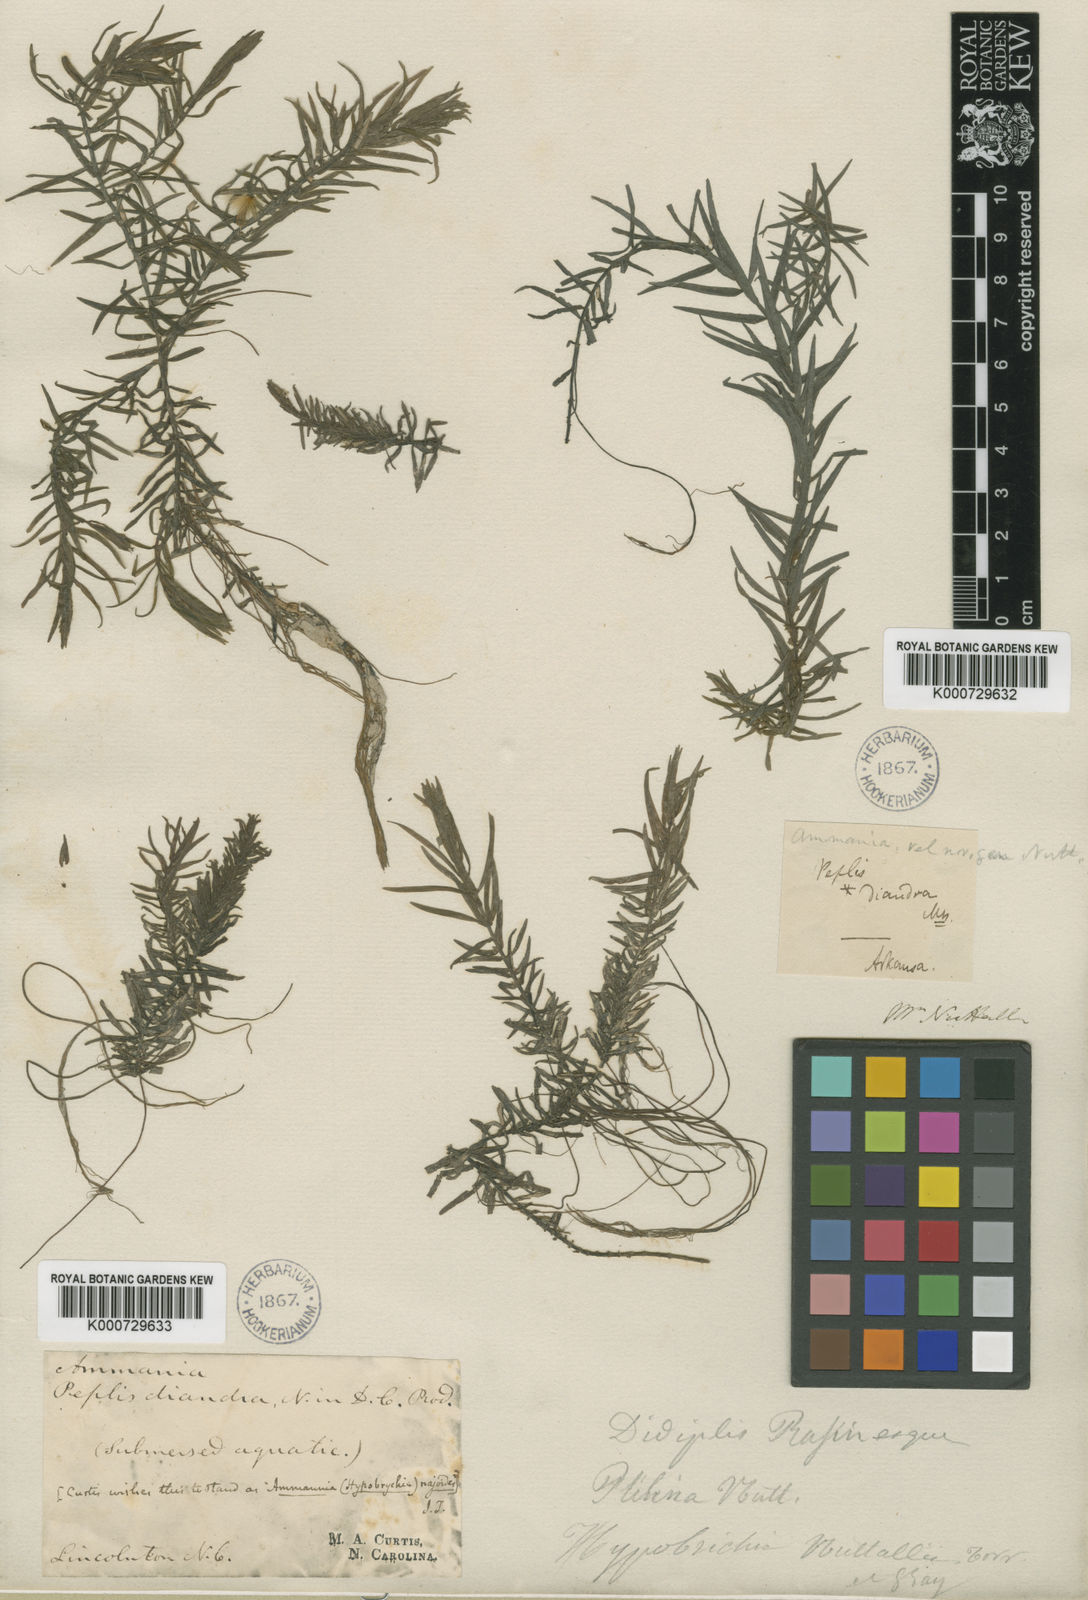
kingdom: Plantae
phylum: Tracheophyta
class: Magnoliopsida
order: Myrtales
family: Lythraceae
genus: Didiplis
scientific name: Didiplis diandra
